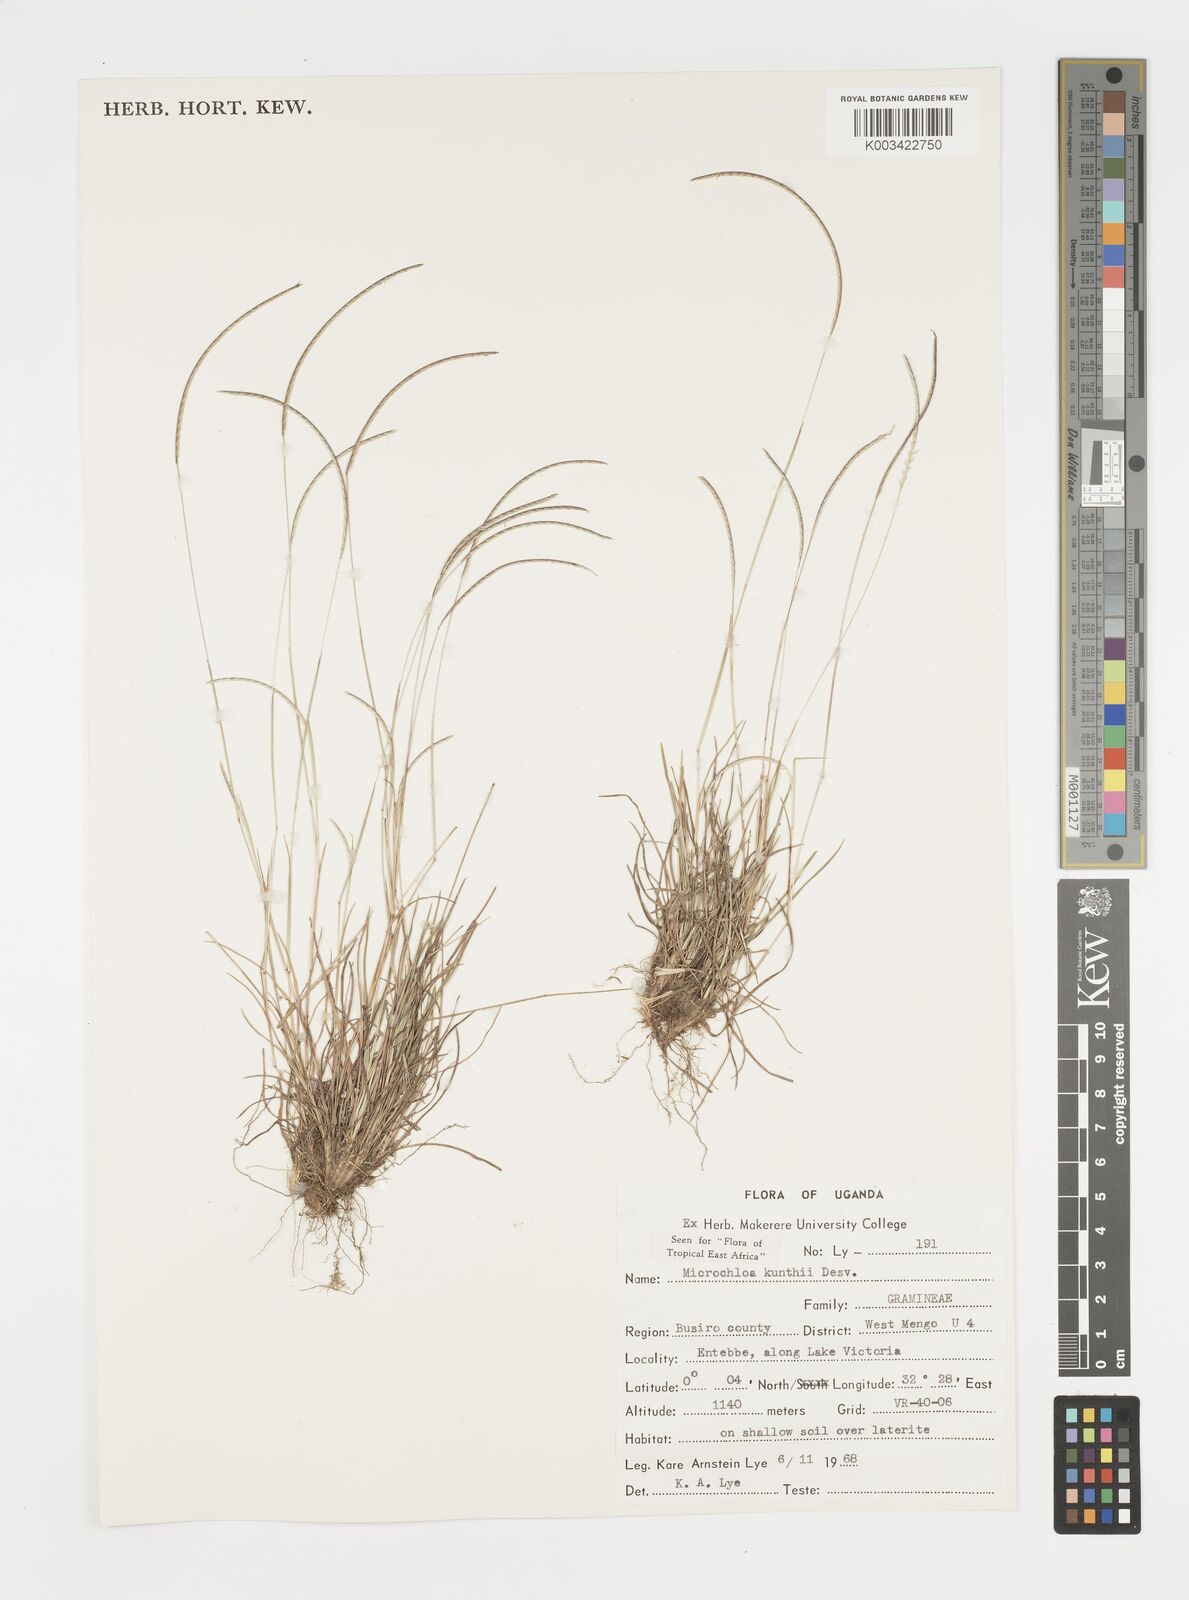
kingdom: Plantae
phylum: Tracheophyta
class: Liliopsida
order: Poales
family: Poaceae
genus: Microchloa
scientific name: Microchloa kunthii
